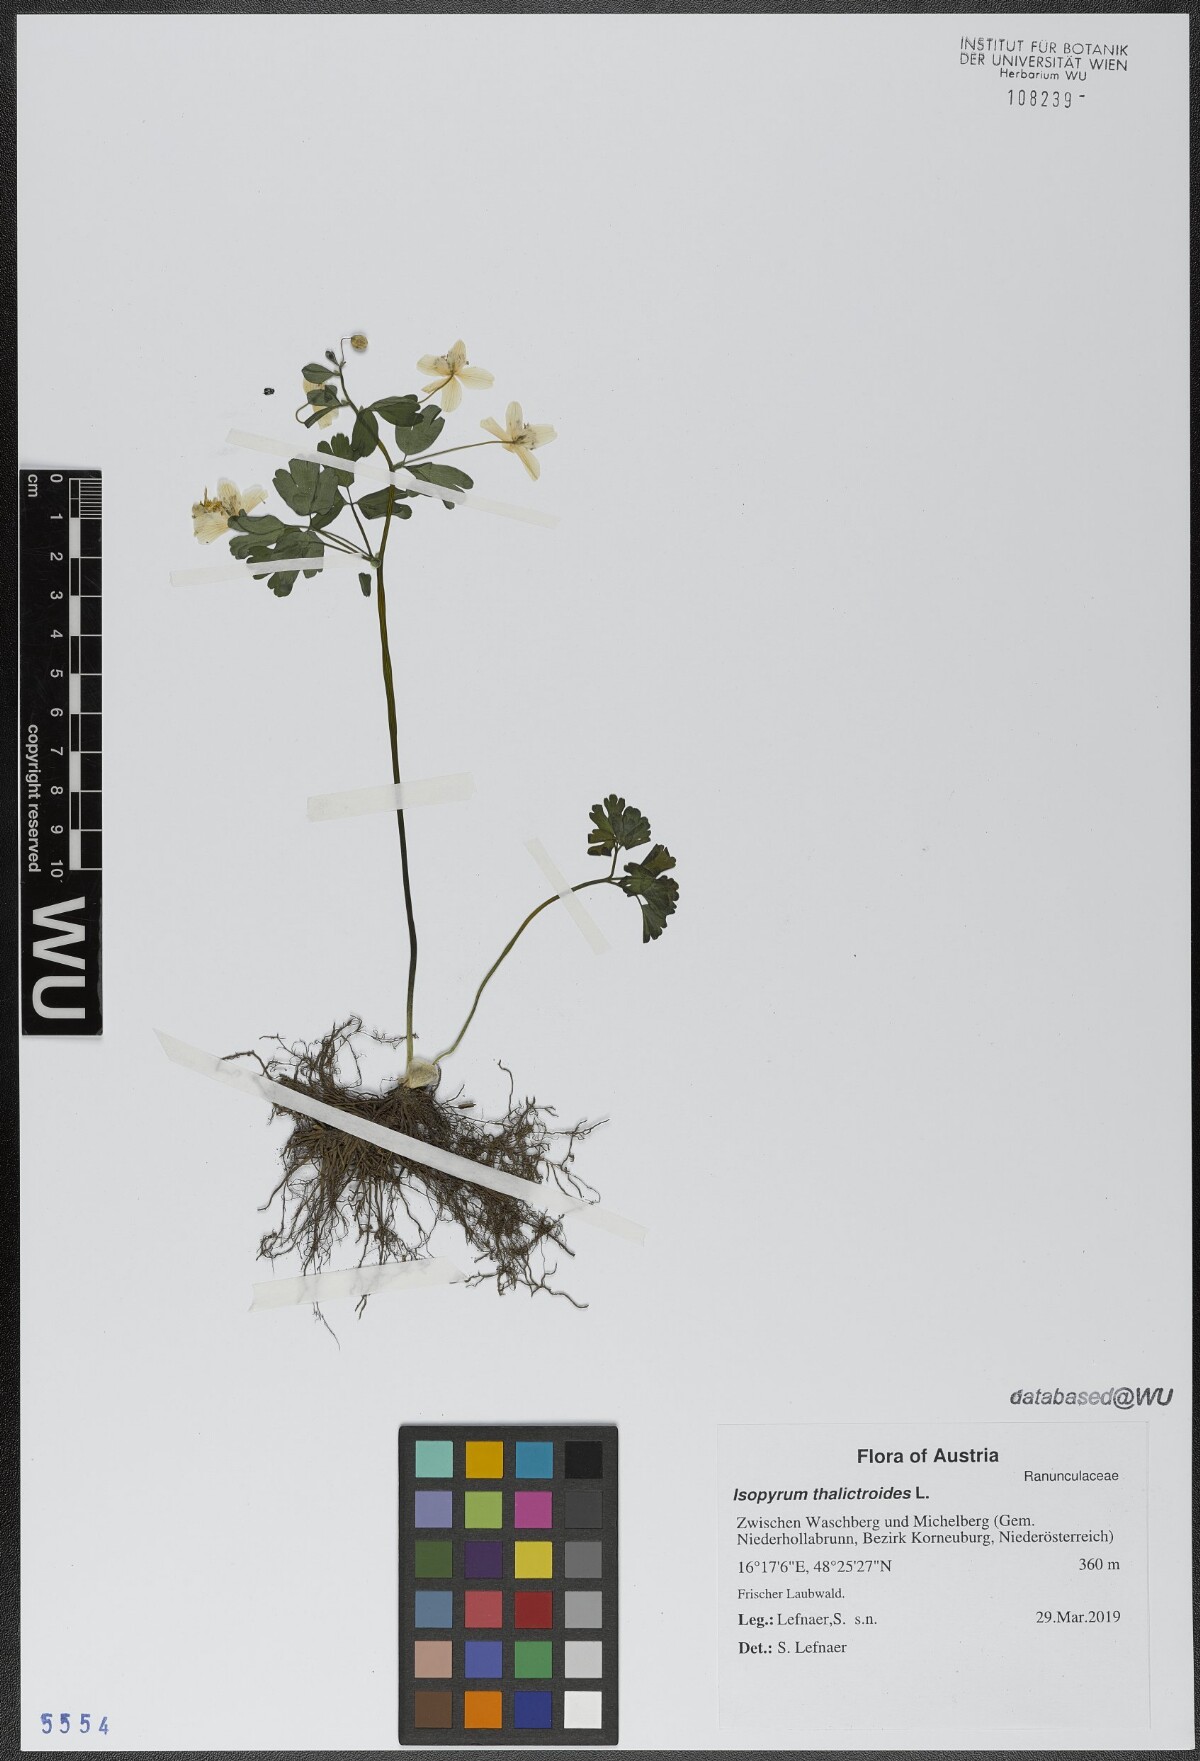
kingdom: Plantae
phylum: Tracheophyta
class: Magnoliopsida
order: Ranunculales
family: Ranunculaceae
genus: Isopyrum
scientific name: Isopyrum thalictroides
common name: Isopyrum
